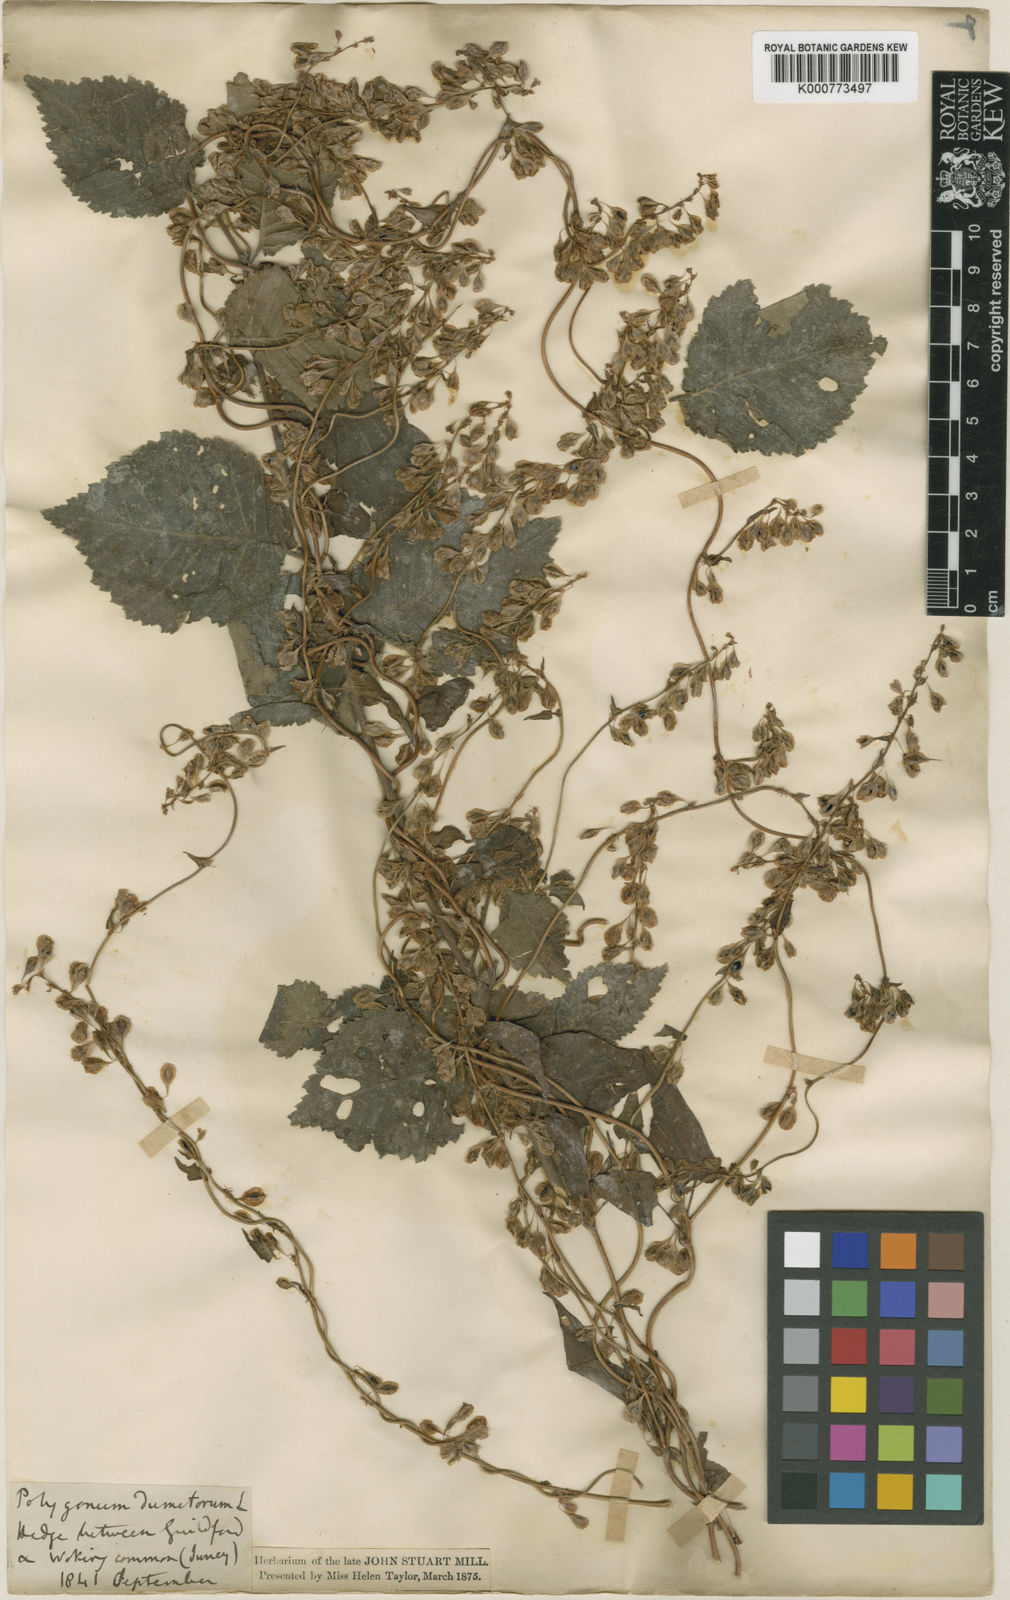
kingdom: Plantae
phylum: Tracheophyta
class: Magnoliopsida
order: Caryophyllales
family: Polygonaceae
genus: Fallopia
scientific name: Fallopia dumetorum
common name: Copse-bindweed
